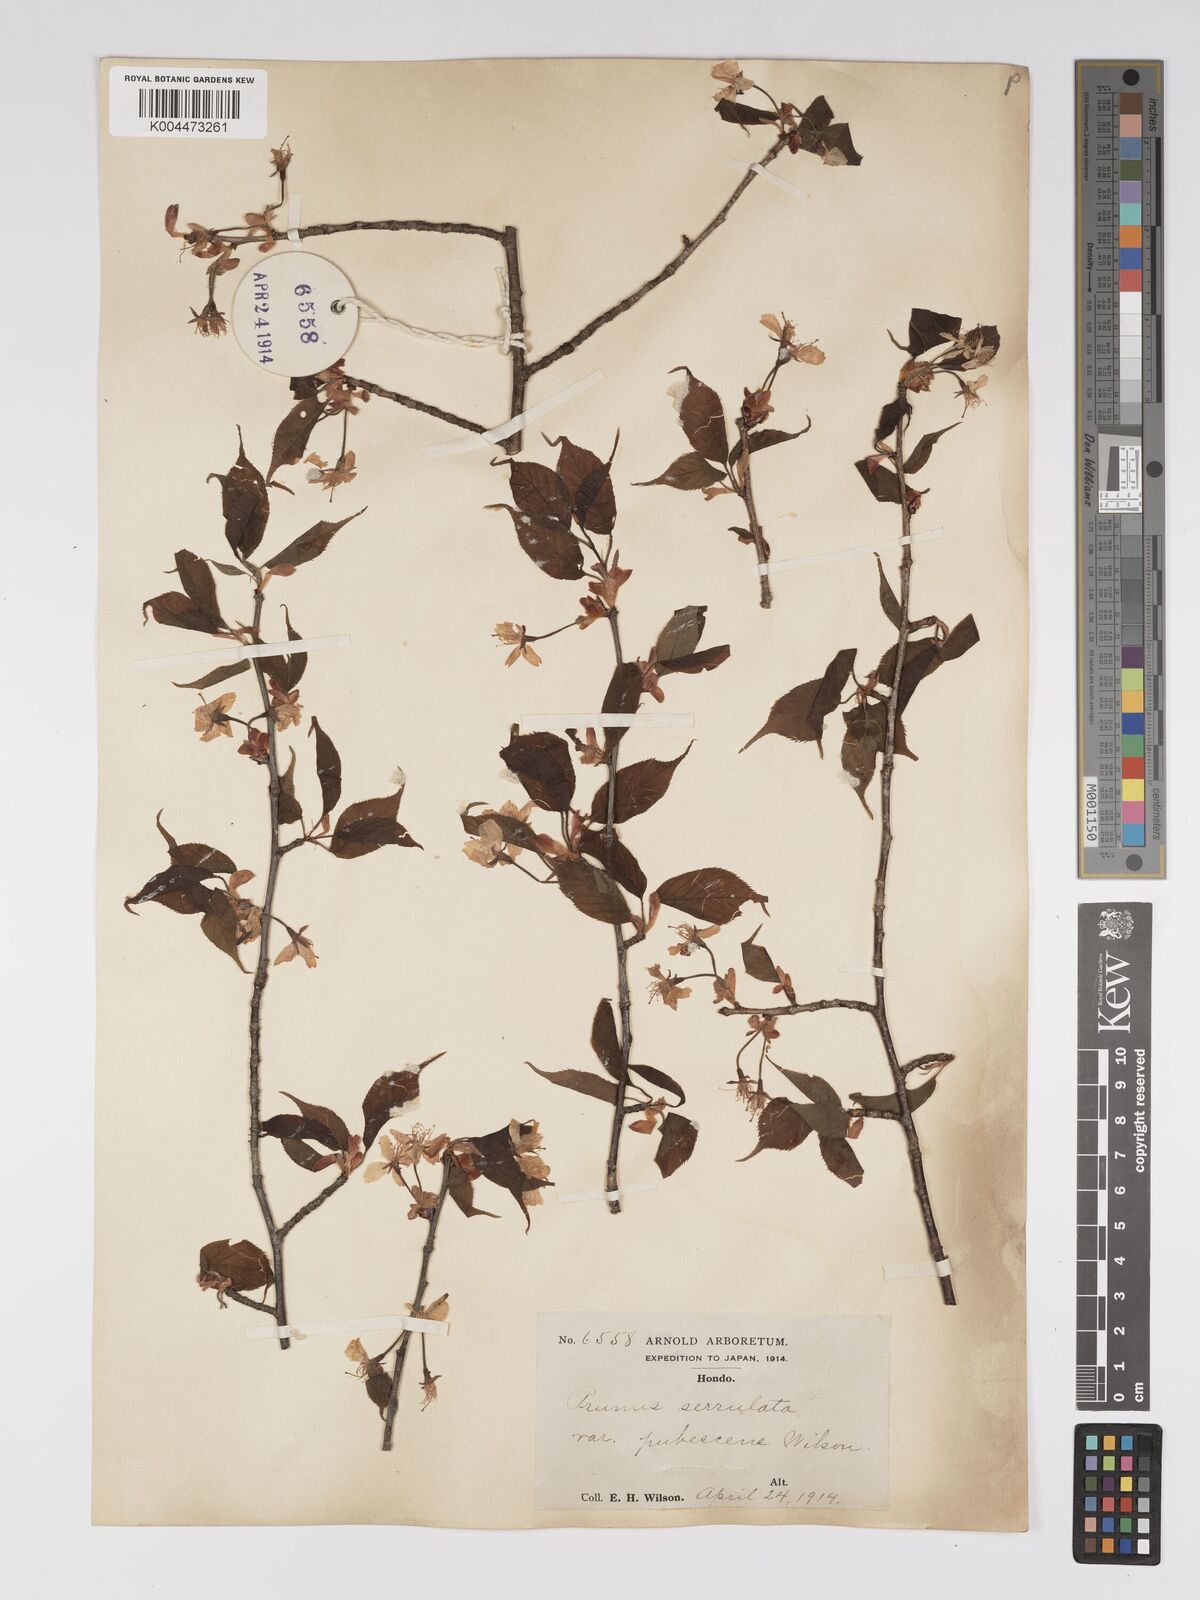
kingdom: Plantae
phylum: Tracheophyta
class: Magnoliopsida
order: Rosales
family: Rosaceae
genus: Prunus
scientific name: Prunus serrulata
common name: Japanese cherry
